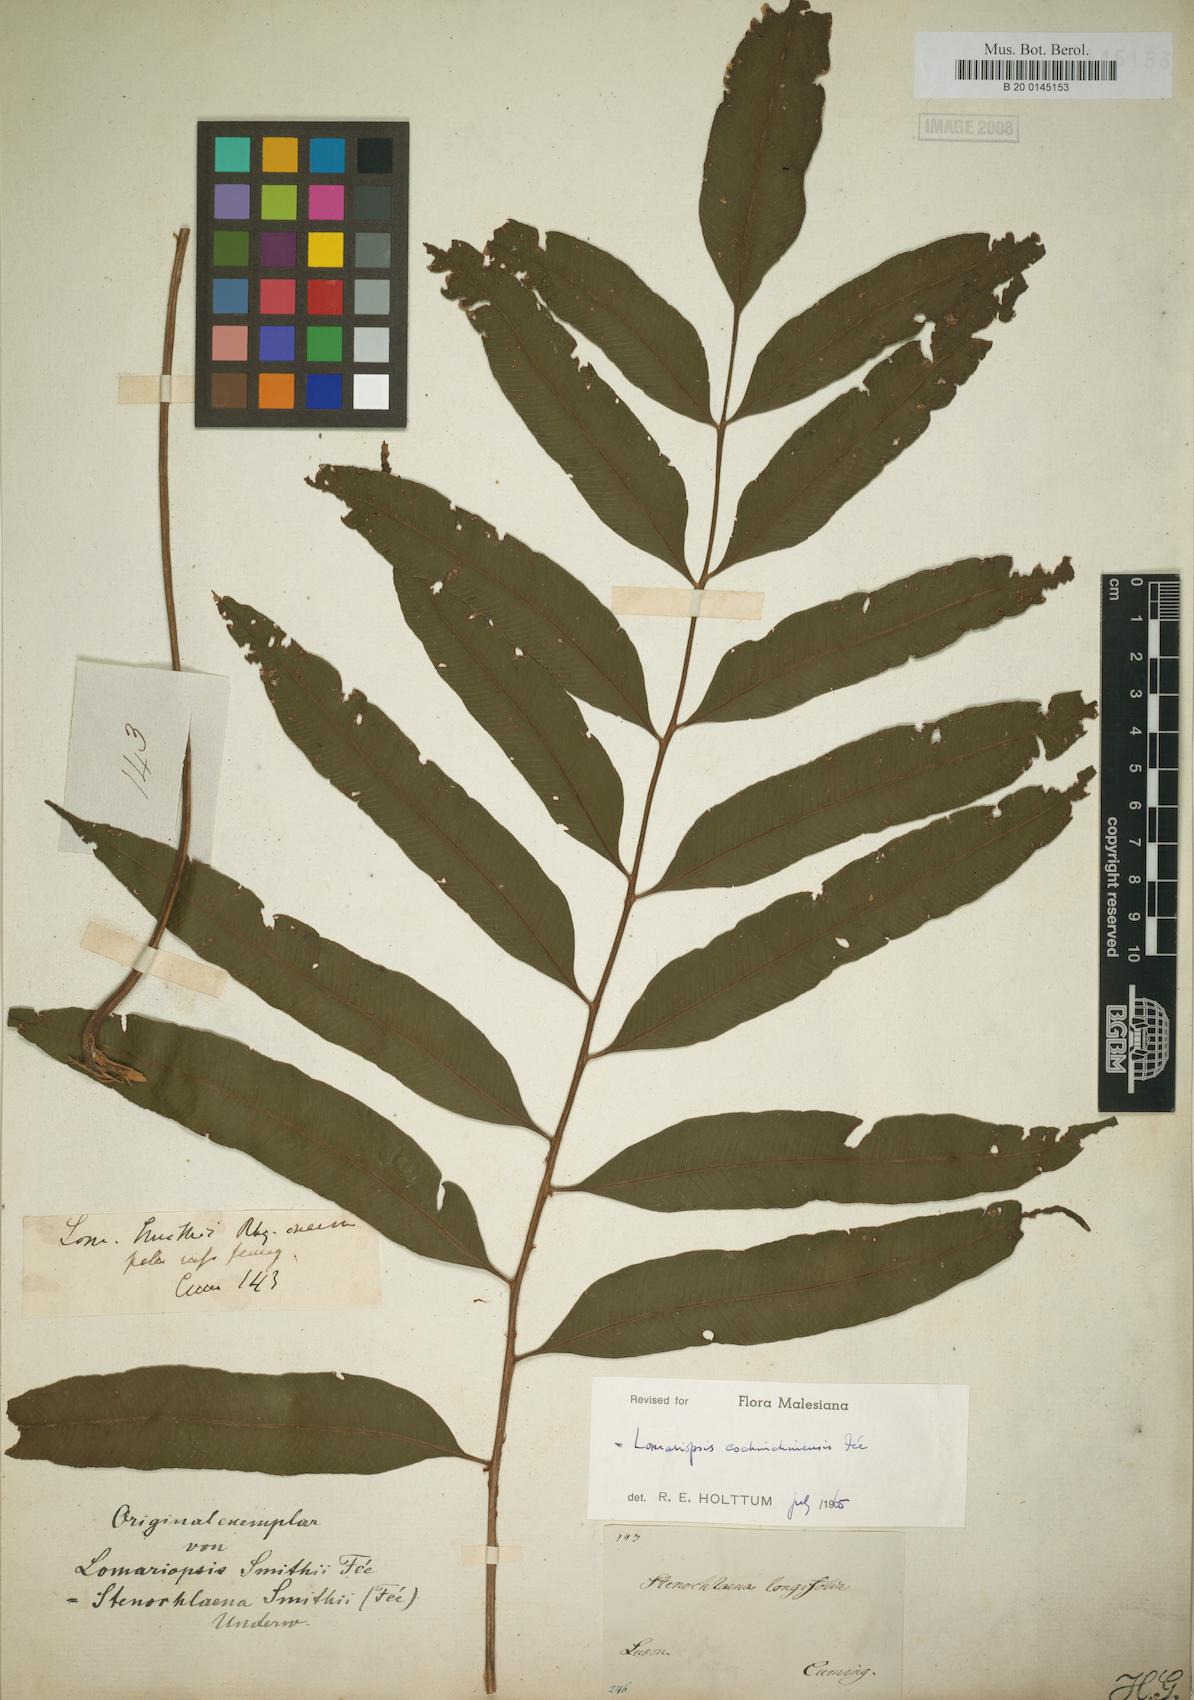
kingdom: Plantae
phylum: Tracheophyta
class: Polypodiopsida
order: Polypodiales
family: Dryopteridaceae
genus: Lomagramma
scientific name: Lomagramma
